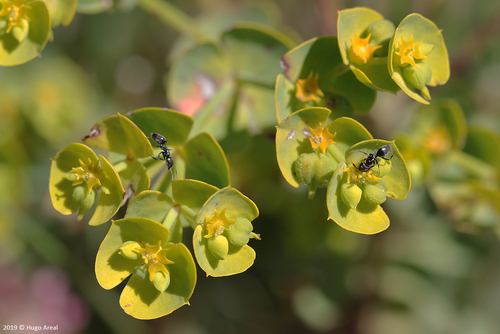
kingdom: Plantae
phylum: Tracheophyta
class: Magnoliopsida
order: Malpighiales
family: Euphorbiaceae
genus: Euphorbia
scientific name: Euphorbia segetalis
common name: Corn spurge
